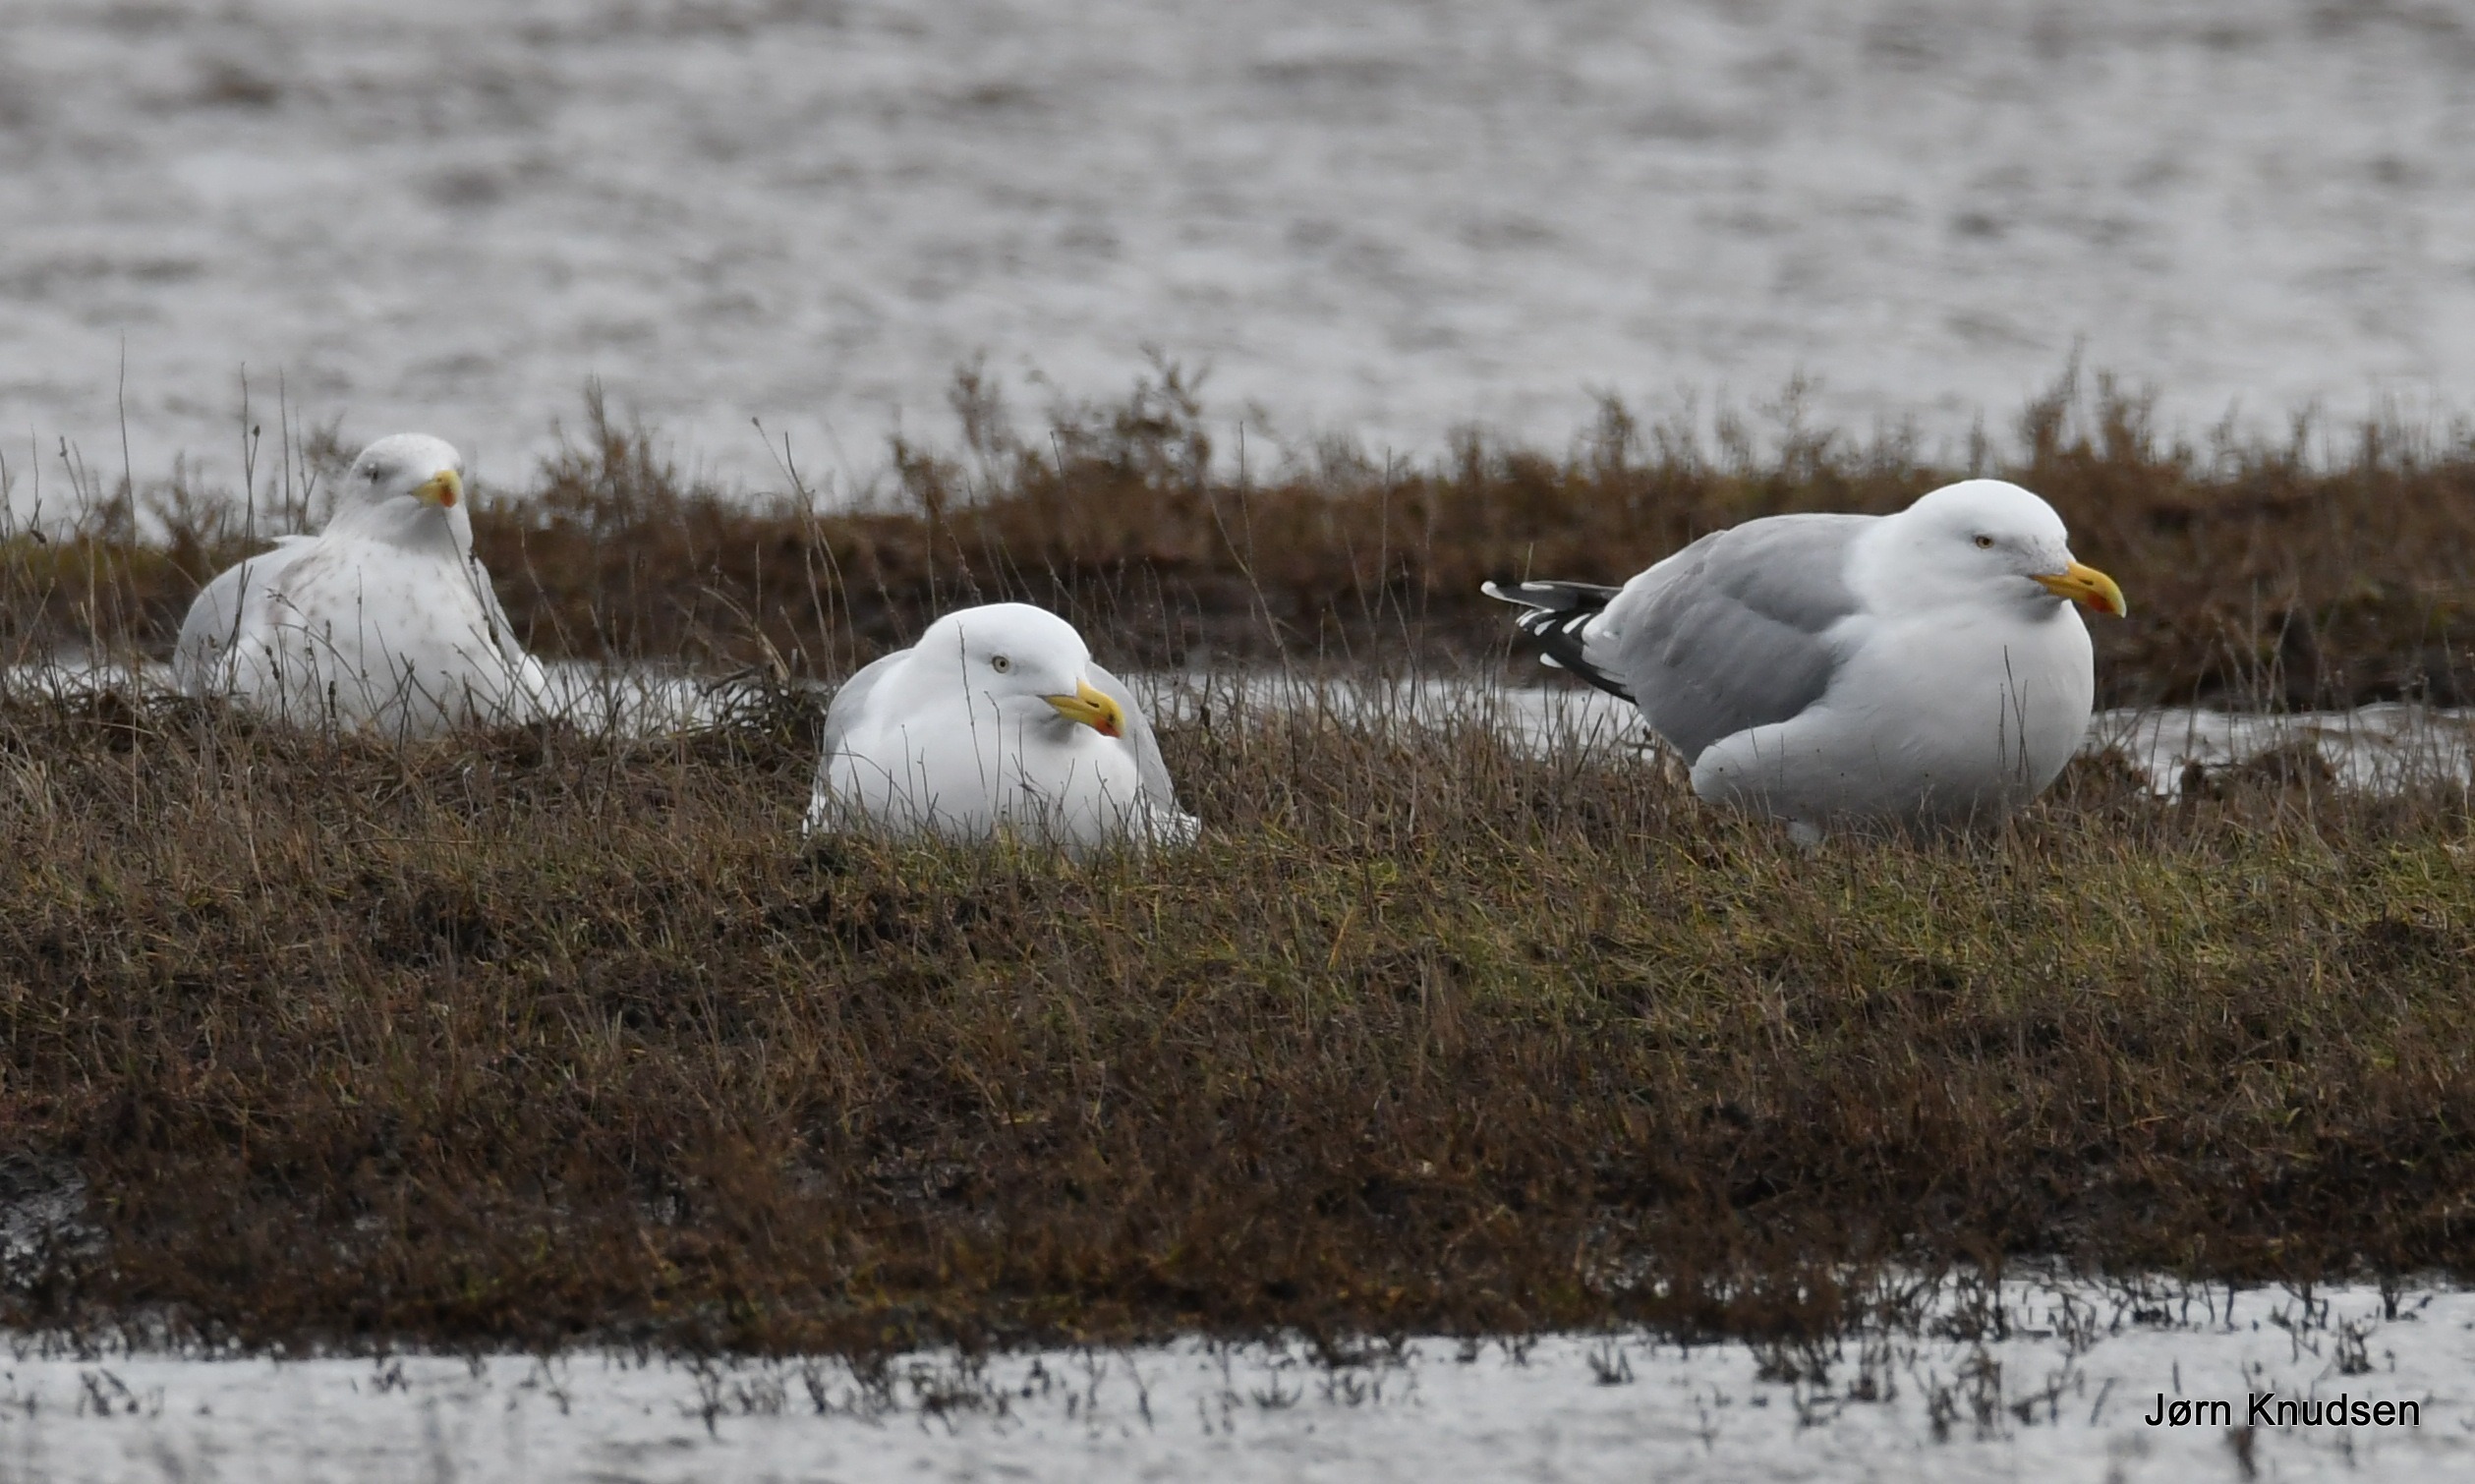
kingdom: Animalia
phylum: Chordata
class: Aves
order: Charadriiformes
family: Laridae
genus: Larus
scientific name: Larus argentatus
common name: Sølvmåge
